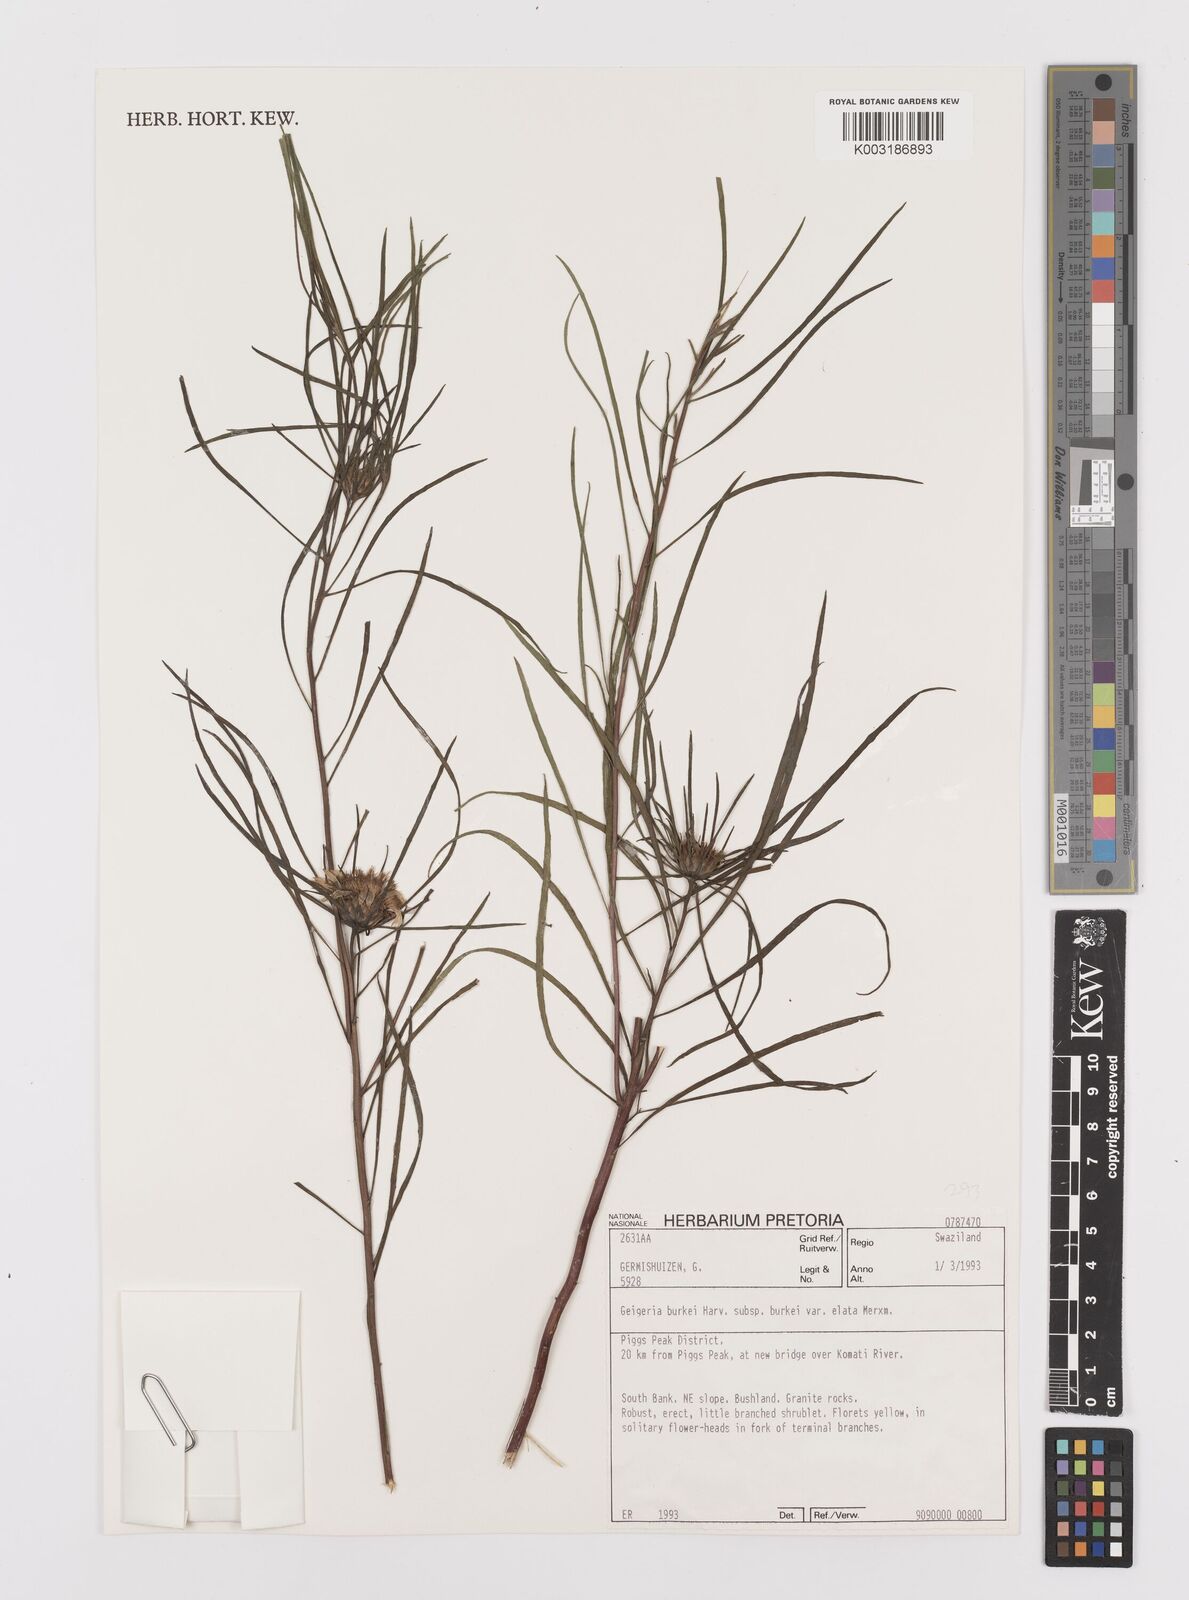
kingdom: Plantae
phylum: Tracheophyta
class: Magnoliopsida
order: Asterales
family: Asteraceae
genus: Geigeria
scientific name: Geigeria burkei
